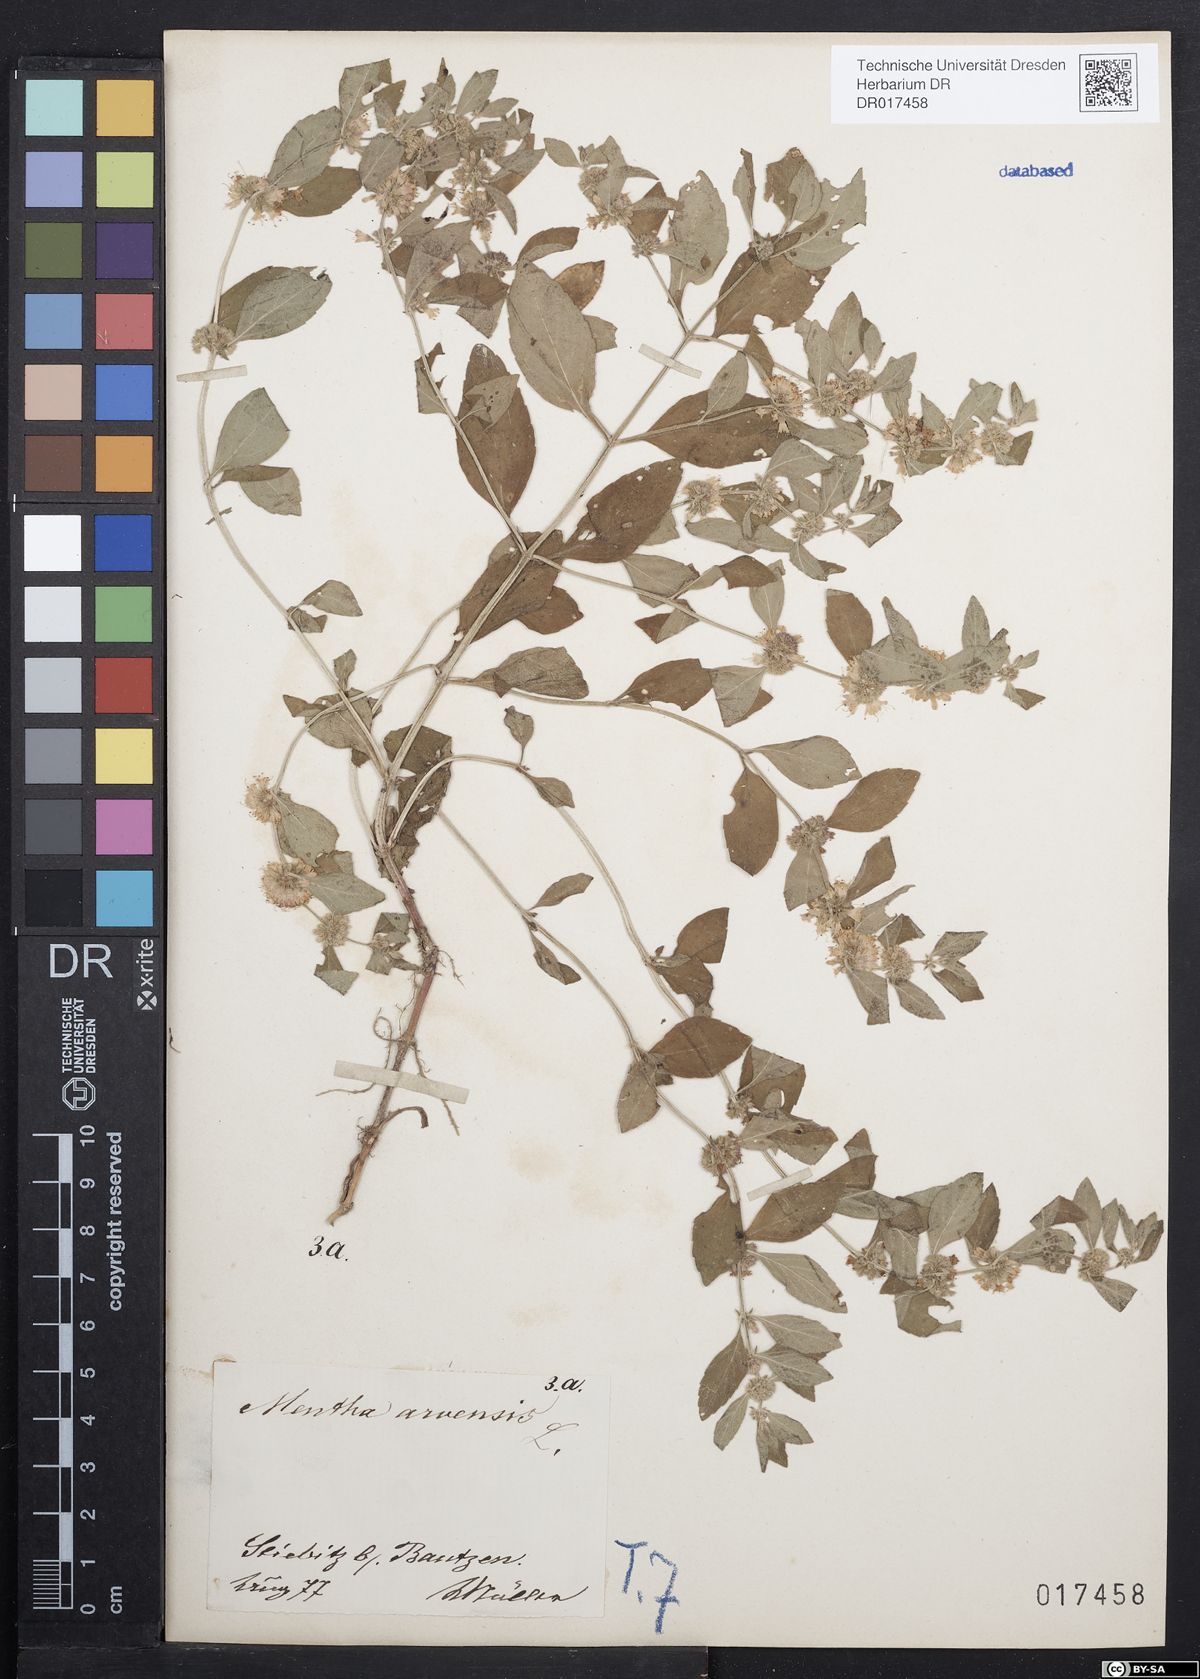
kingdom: Plantae
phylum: Tracheophyta
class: Magnoliopsida
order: Lamiales
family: Lamiaceae
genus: Mentha
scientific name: Mentha arvensis
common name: Corn mint
